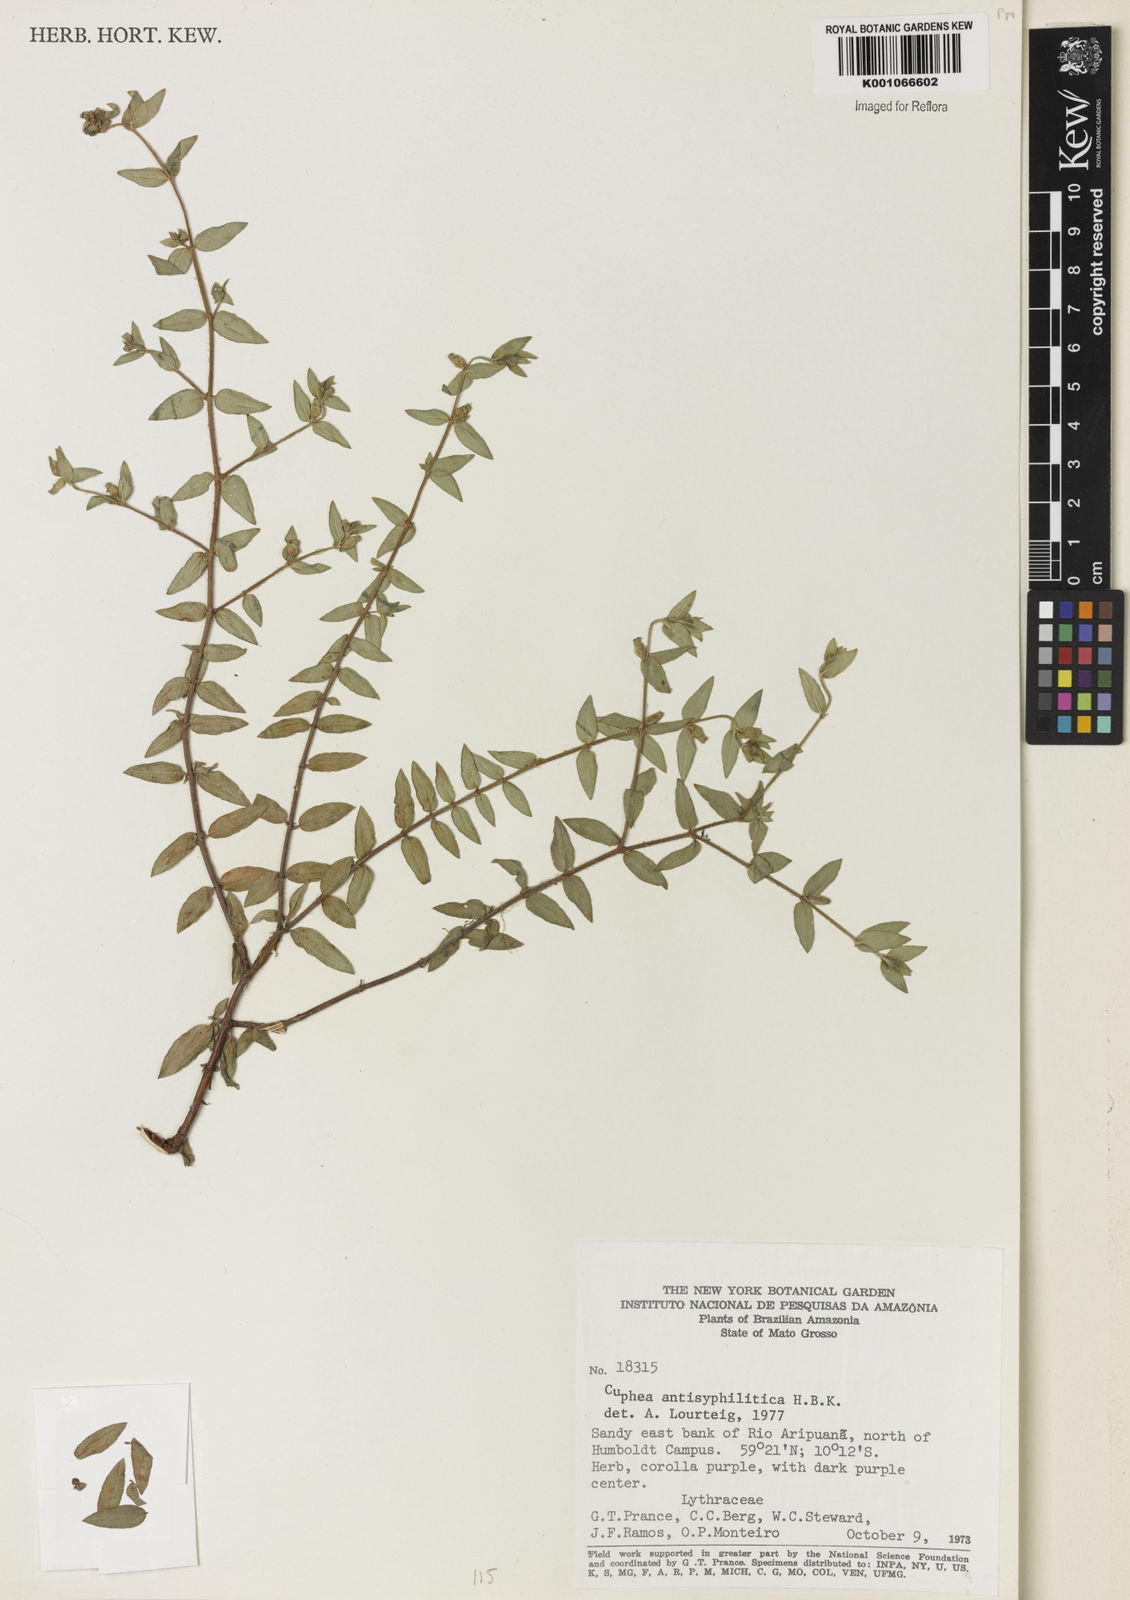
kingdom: Plantae
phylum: Tracheophyta
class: Magnoliopsida
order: Myrtales
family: Lythraceae
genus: Cuphea
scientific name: Cuphea antisyphilitica
